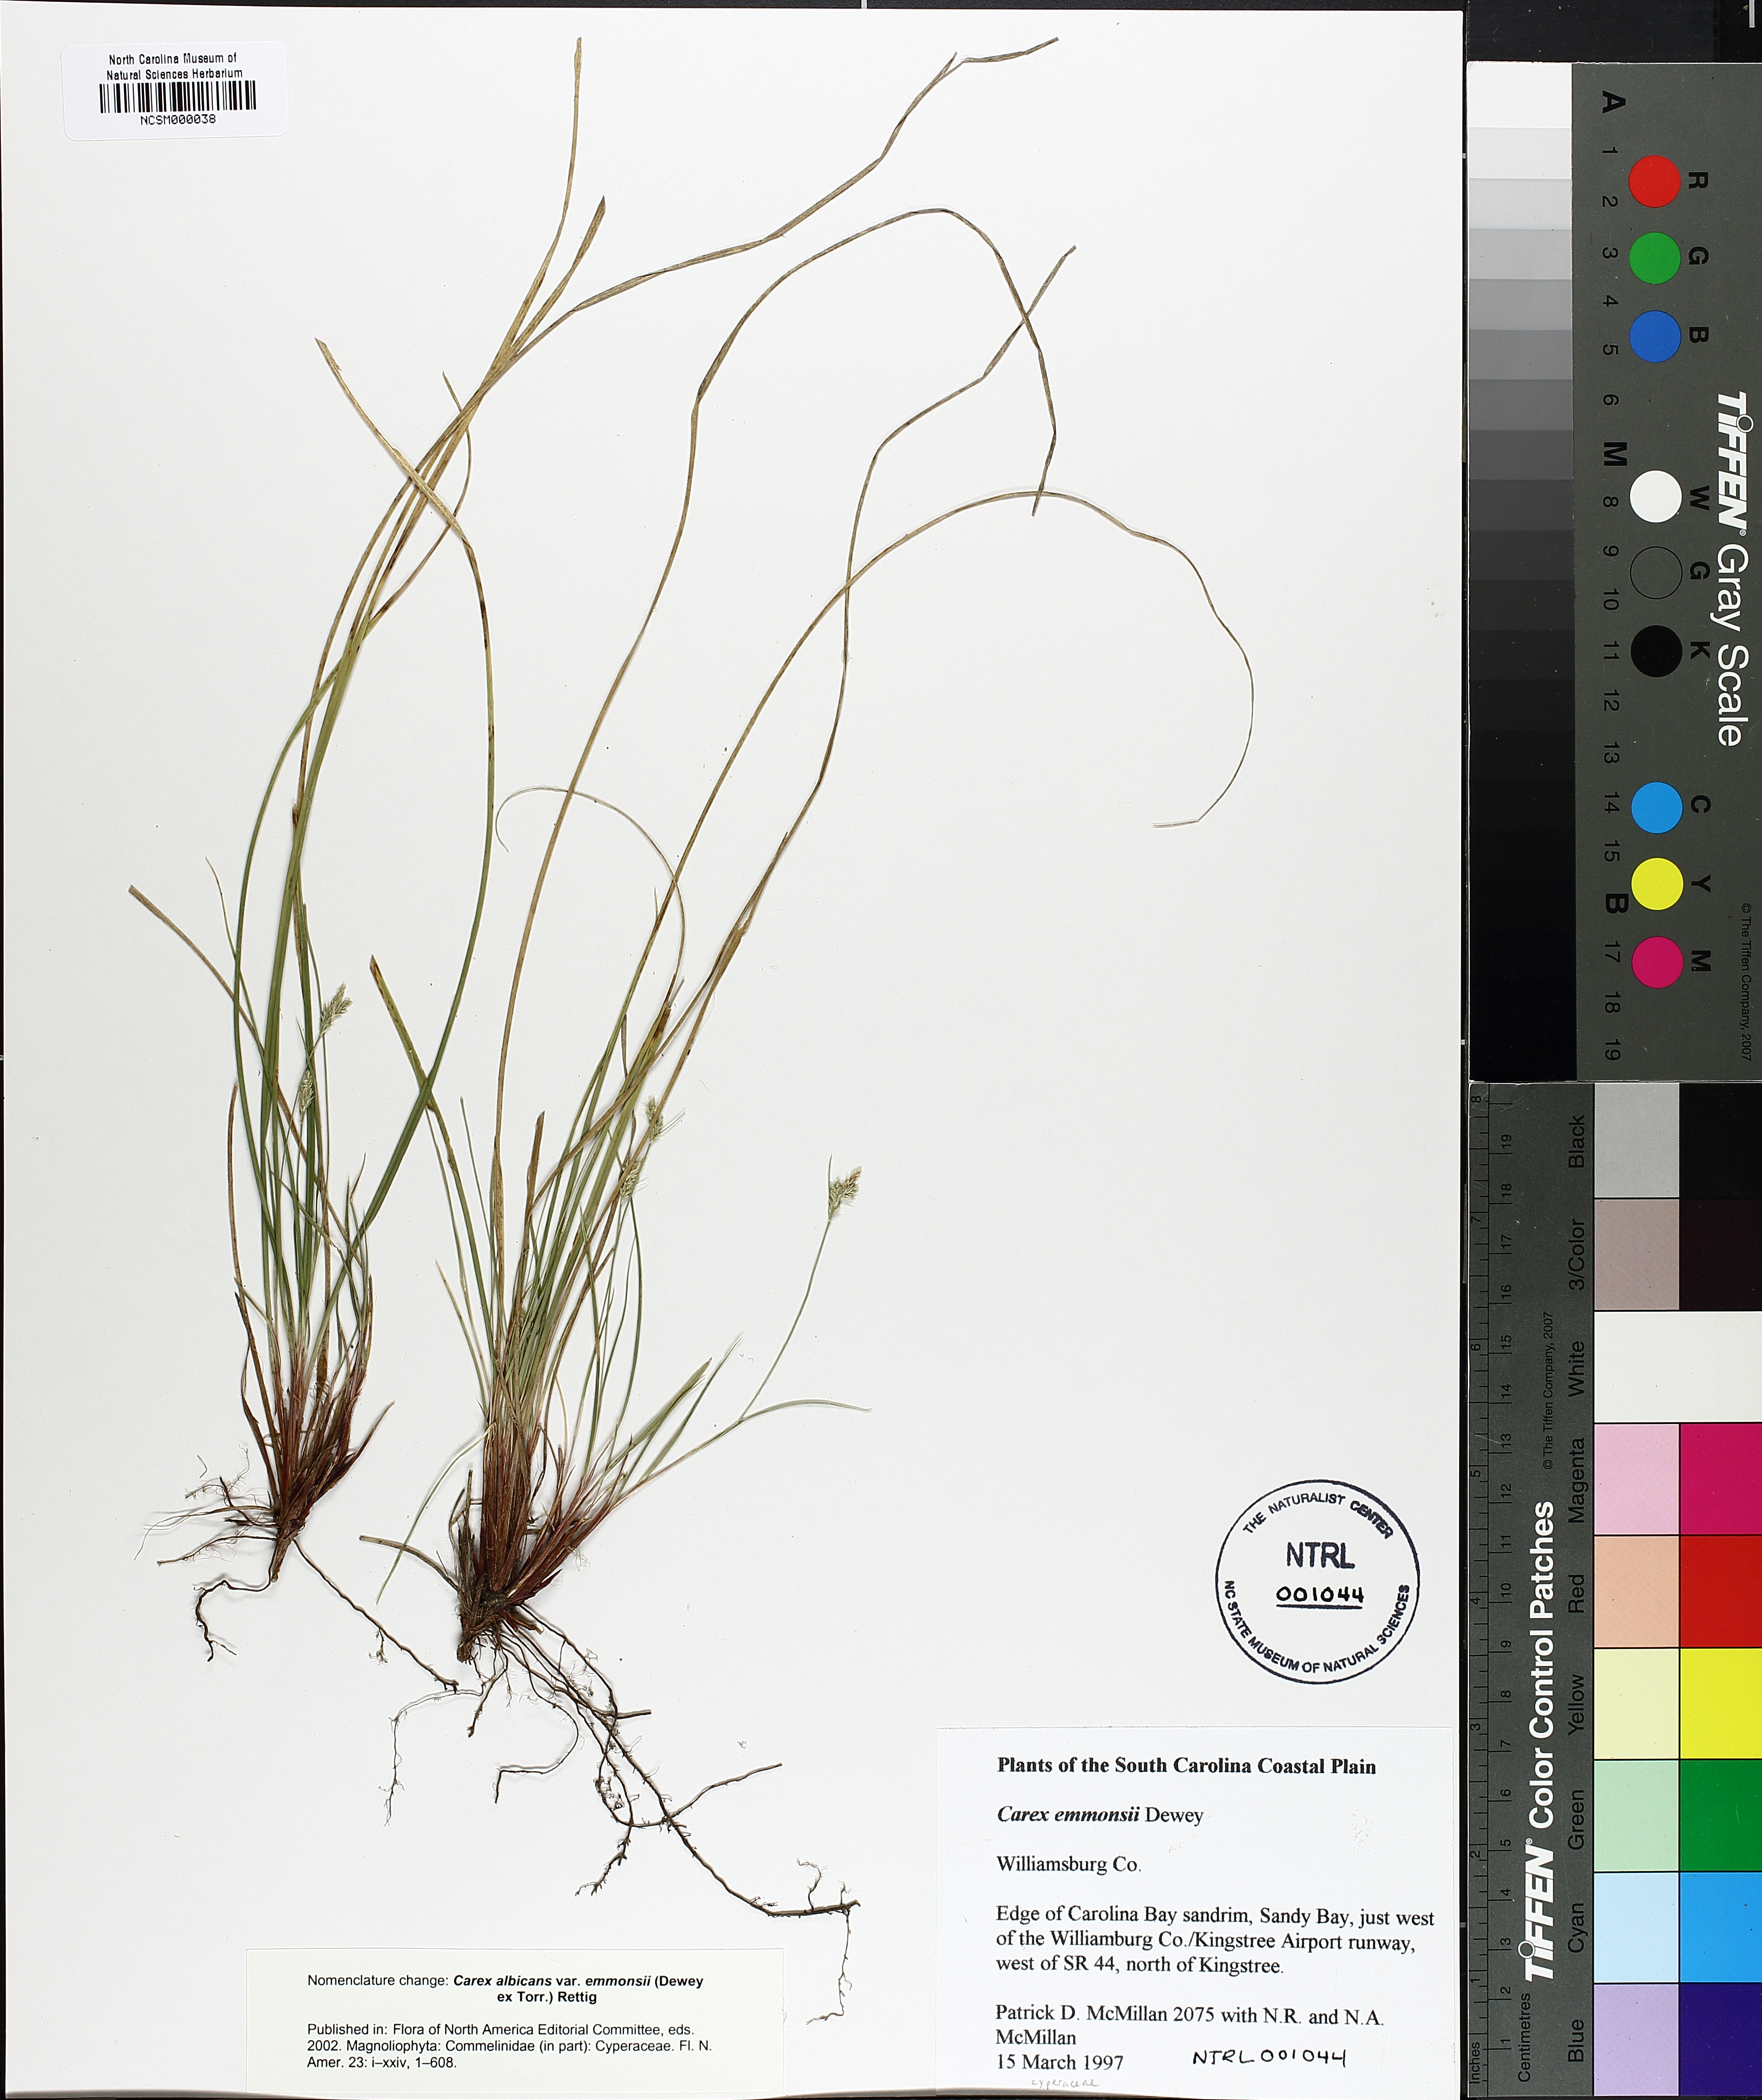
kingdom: Plantae
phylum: Tracheophyta
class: Liliopsida
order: Poales
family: Cyperaceae
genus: Carex
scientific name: Carex albicans
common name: Bellow-beaked sedge
